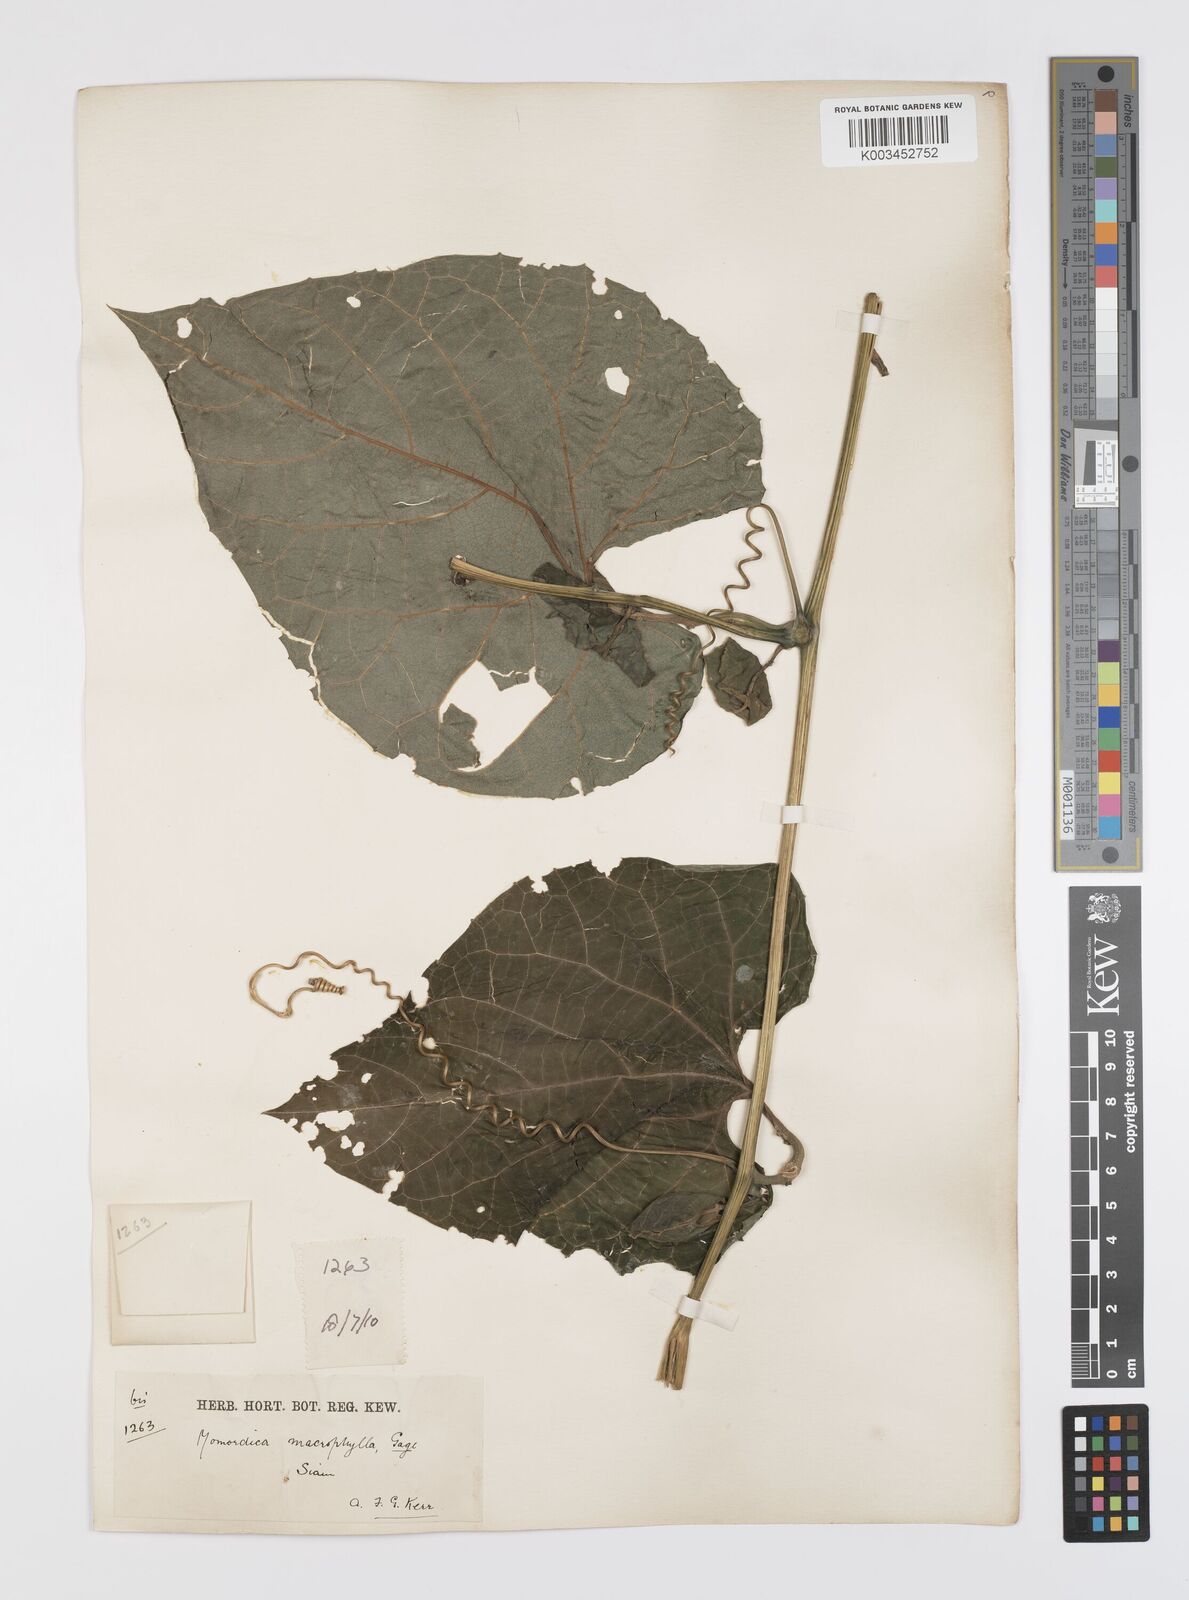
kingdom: Plantae
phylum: Tracheophyta
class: Magnoliopsida
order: Cucurbitales
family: Cucurbitaceae
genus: Momordica
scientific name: Momordica cochinchinensis
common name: Chinese bitter-cucumber
